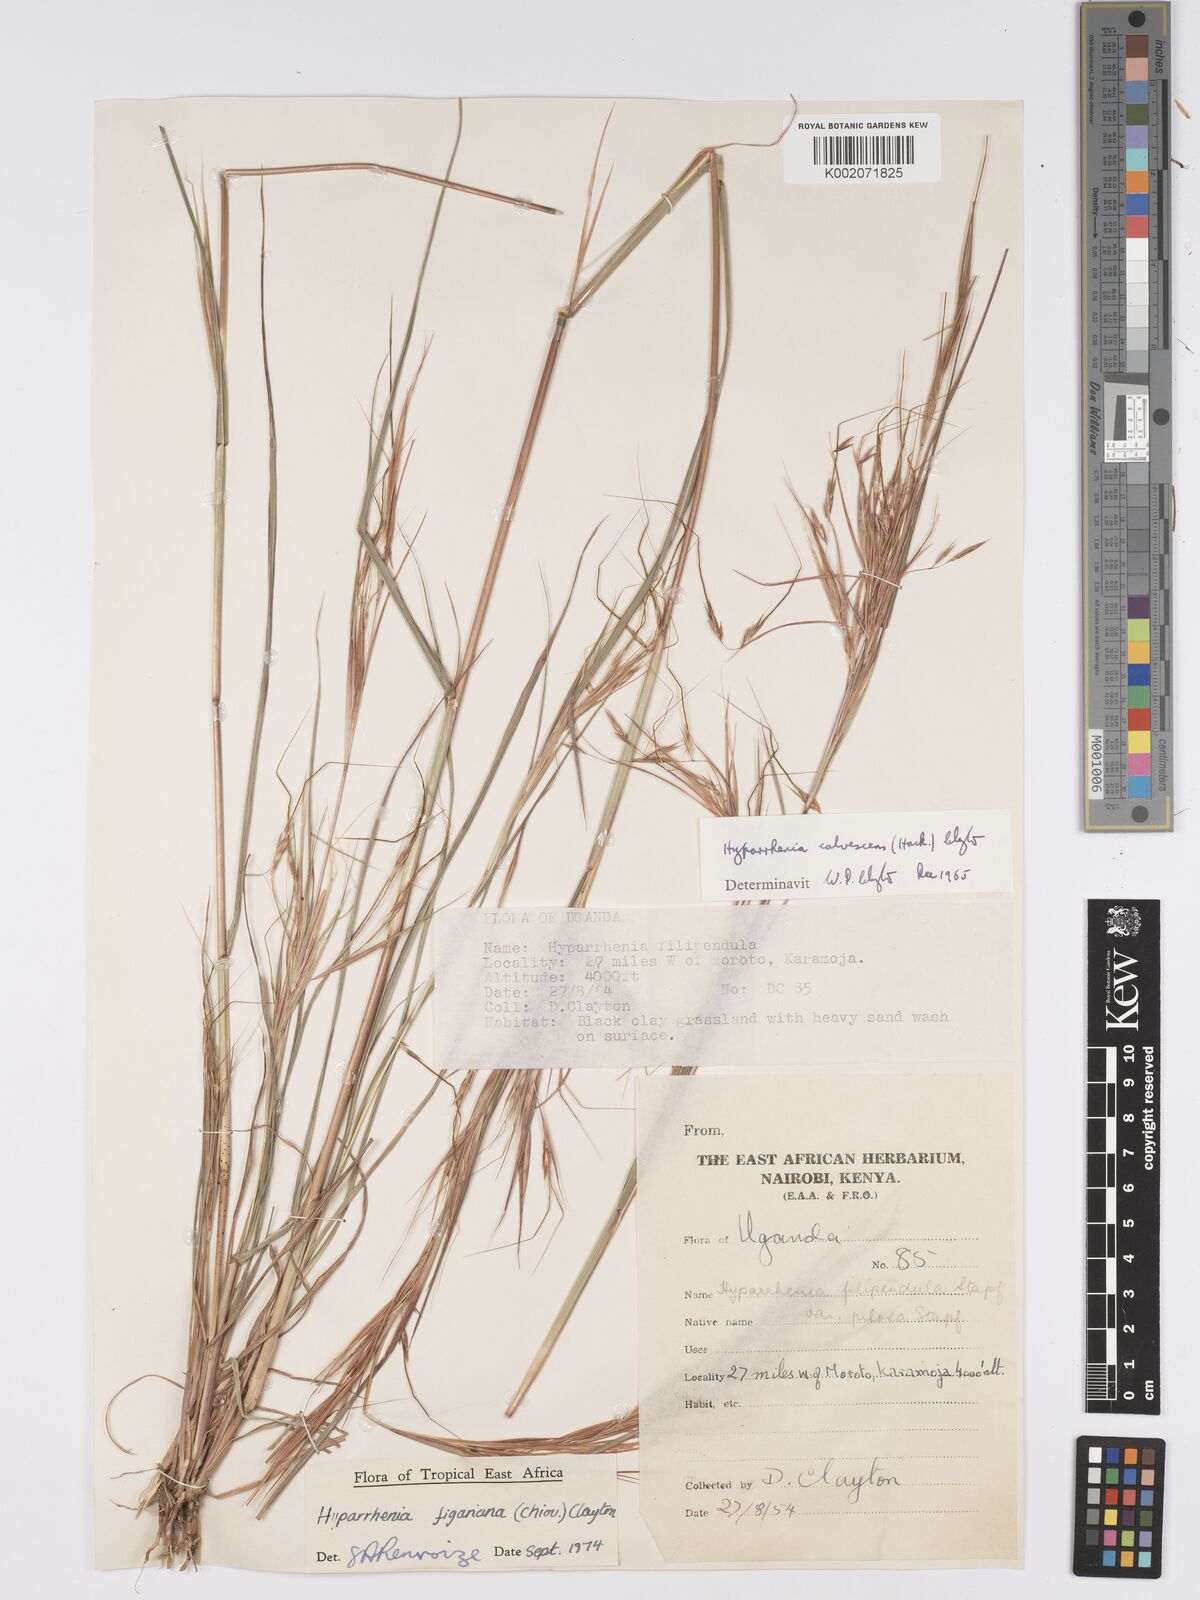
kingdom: Plantae
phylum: Tracheophyta
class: Liliopsida
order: Poales
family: Poaceae
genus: Hyparrhenia
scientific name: Hyparrhenia figariana
